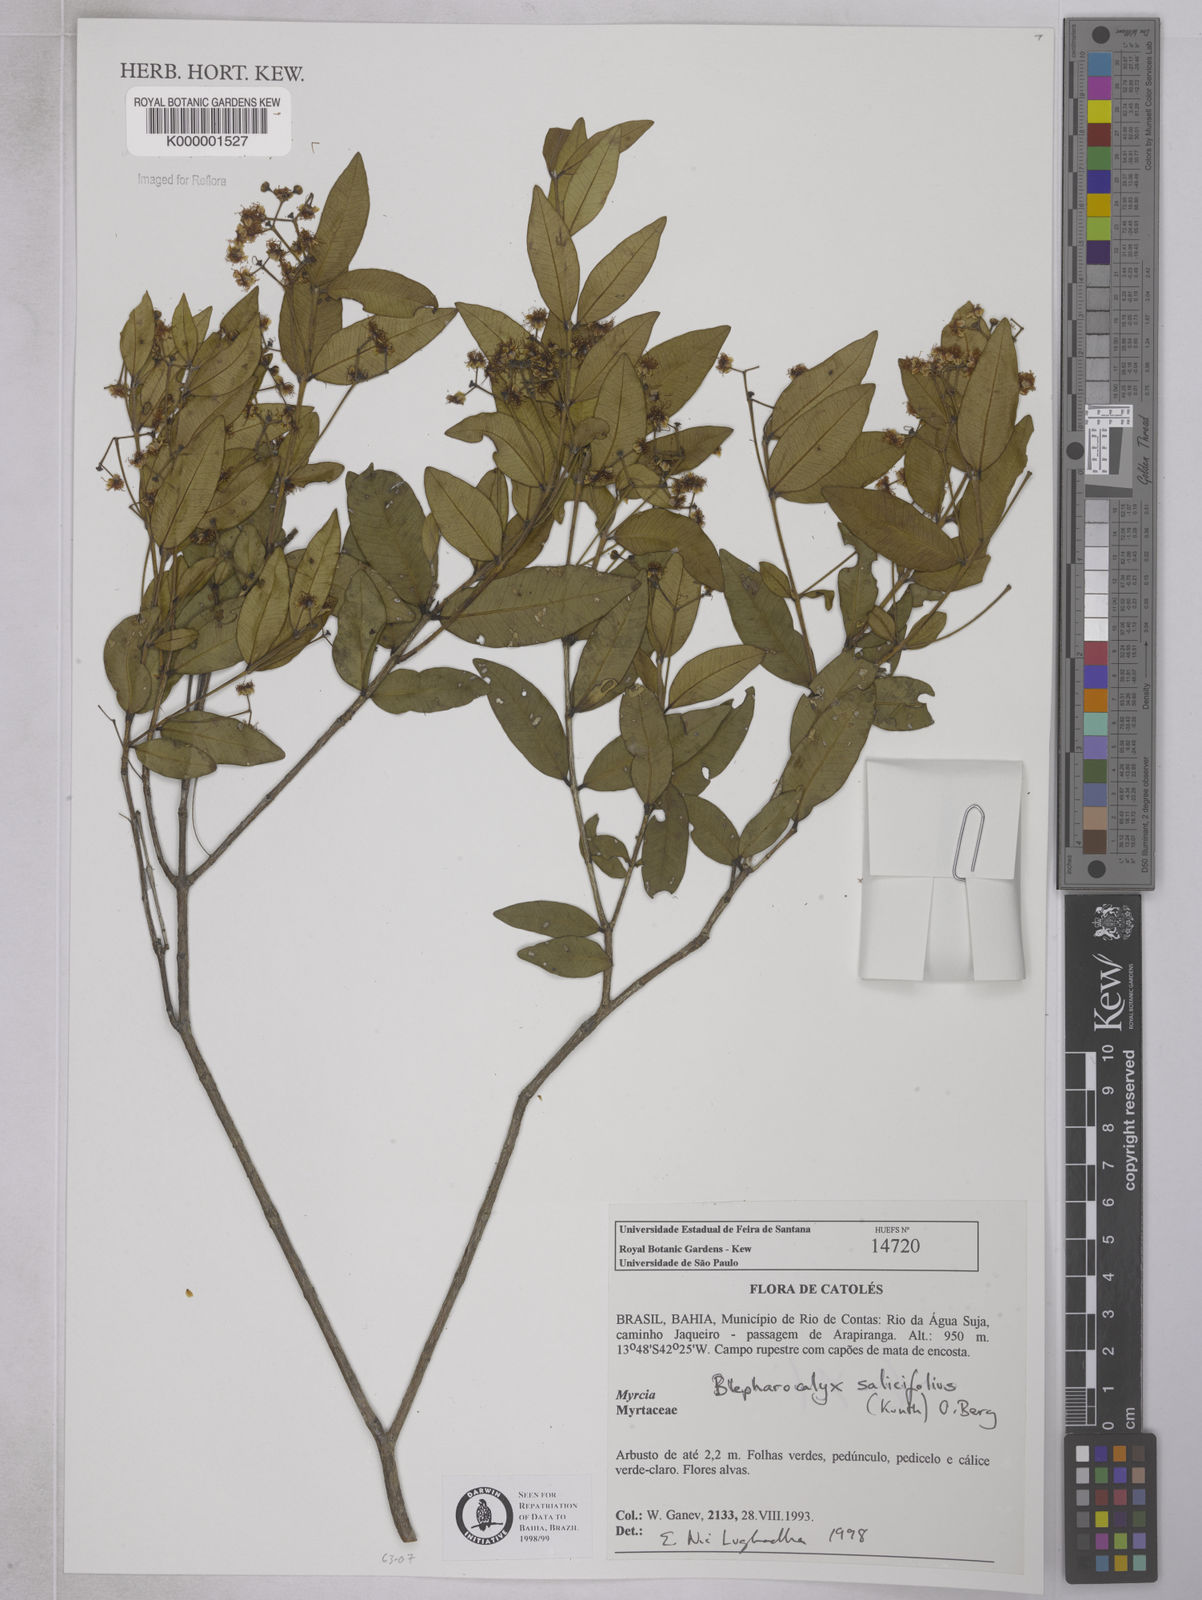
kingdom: Plantae
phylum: Tracheophyta
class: Magnoliopsida
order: Myrtales
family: Myrtaceae
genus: Blepharocalyx
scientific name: Blepharocalyx salicifolius
